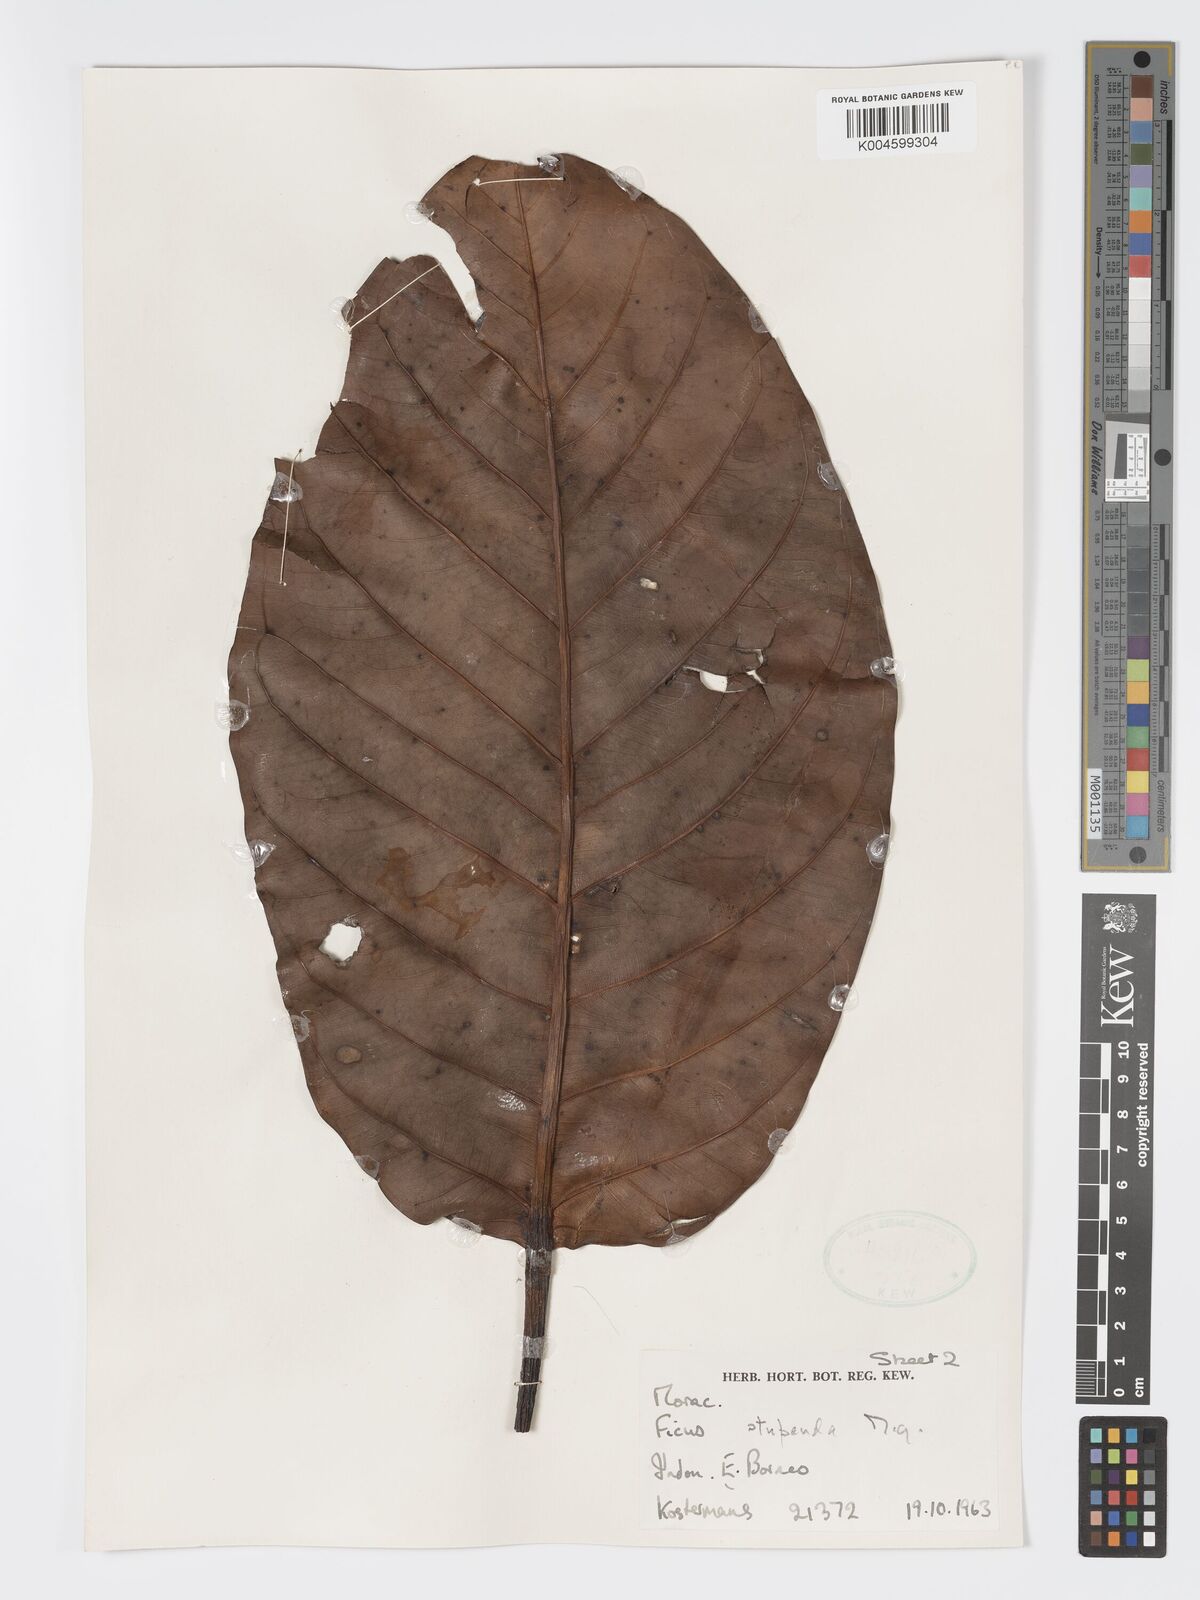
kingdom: Plantae
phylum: Tracheophyta
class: Magnoliopsida
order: Rosales
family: Moraceae
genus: Ficus
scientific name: Ficus crassiramea
